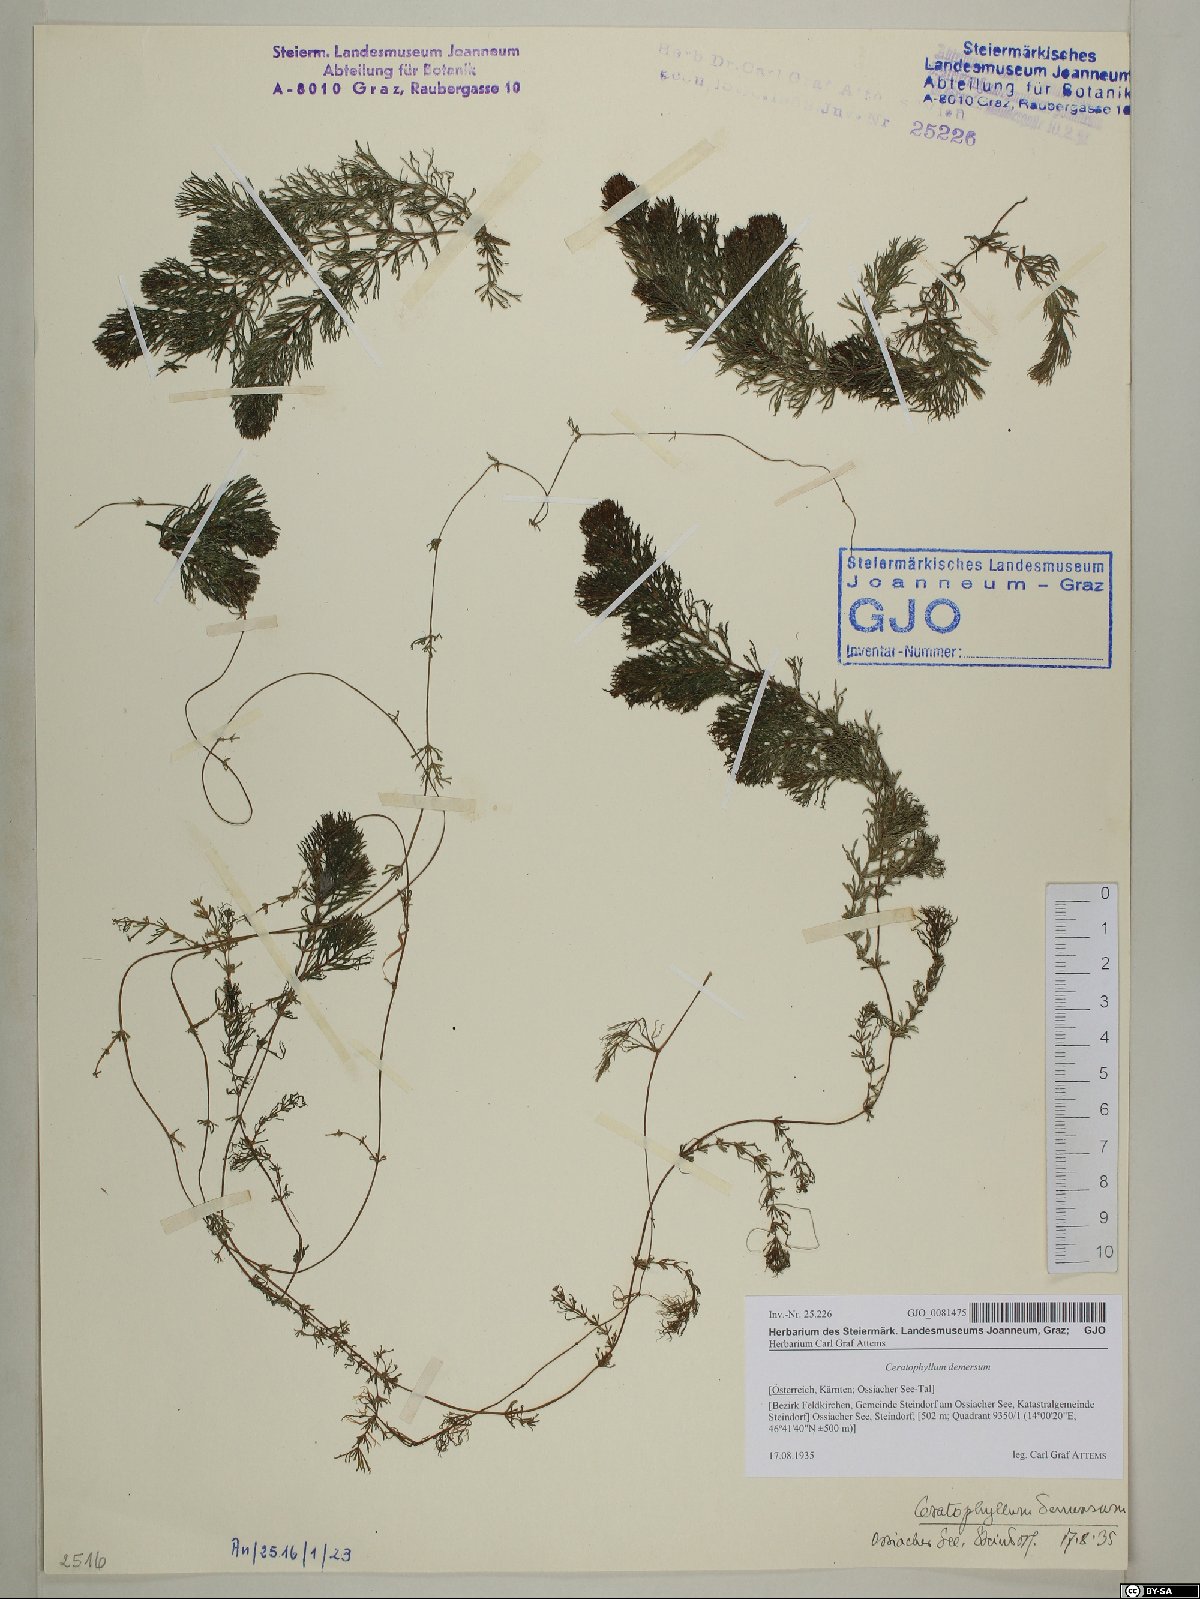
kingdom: Plantae
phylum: Tracheophyta
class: Magnoliopsida
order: Ceratophyllales
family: Ceratophyllaceae
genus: Ceratophyllum
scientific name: Ceratophyllum demersum
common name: Rigid hornwort
